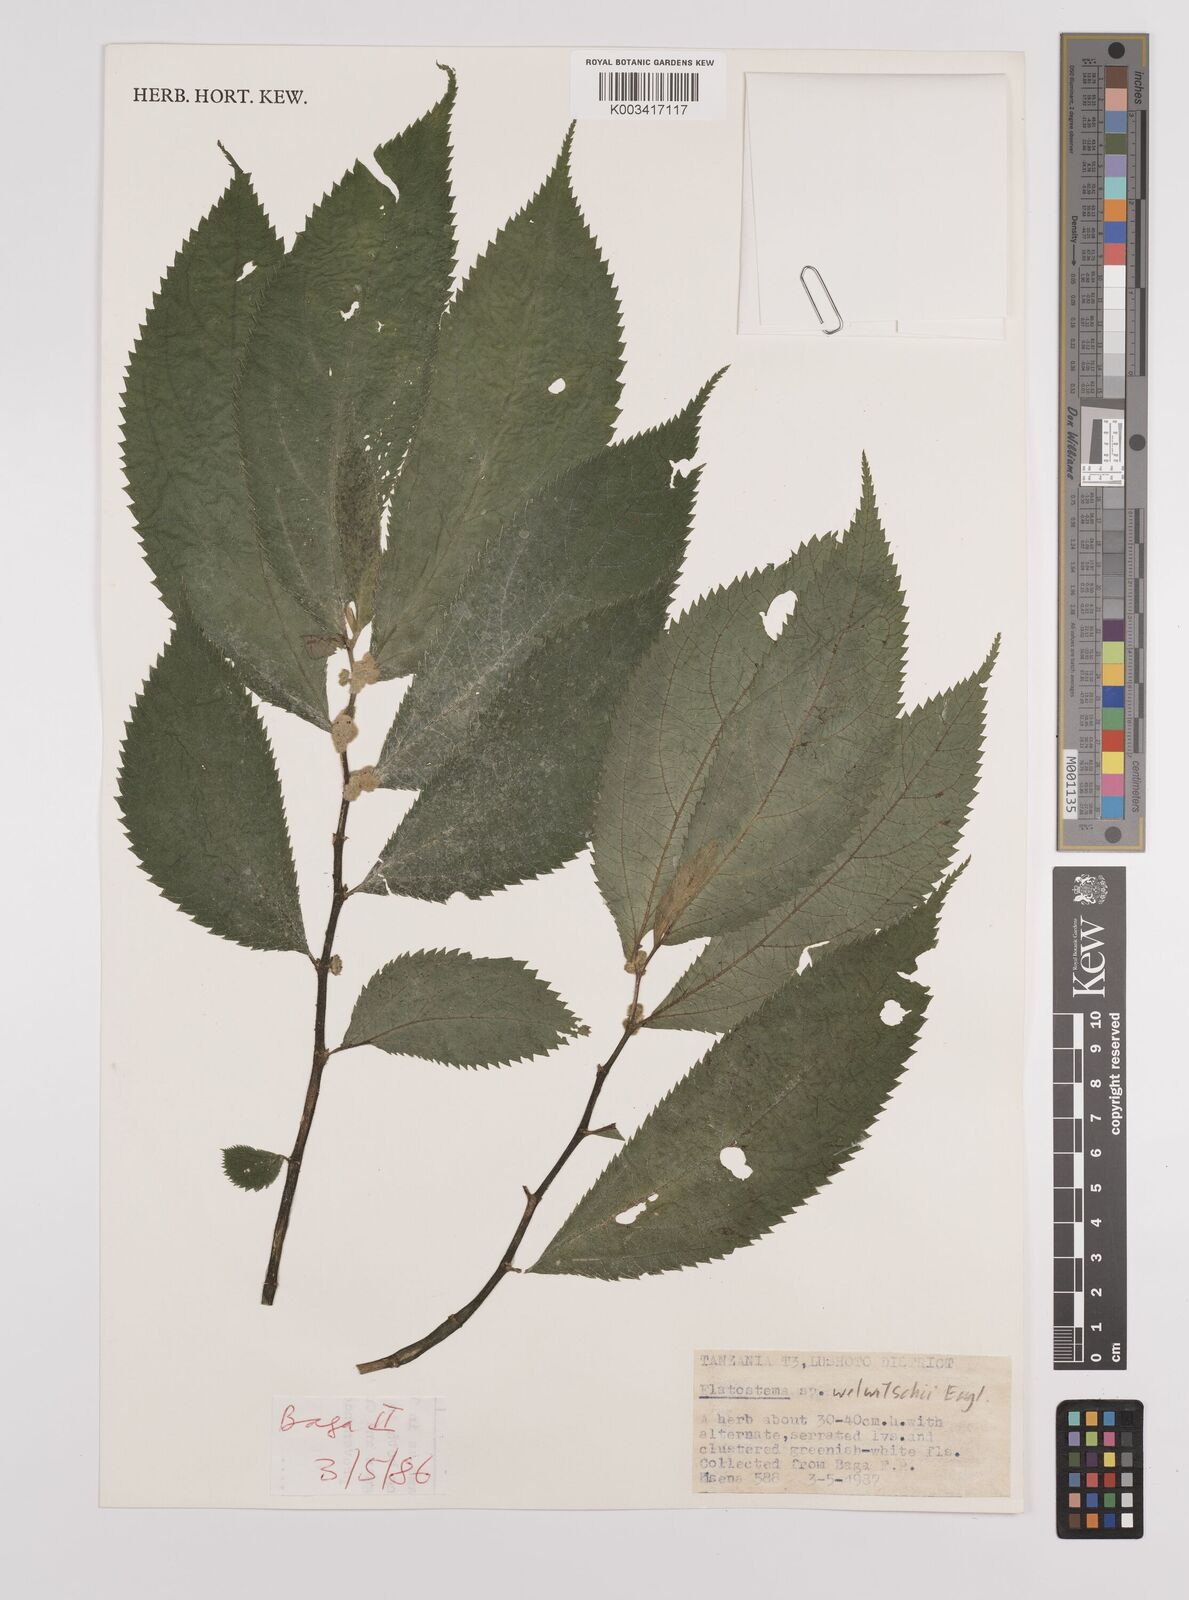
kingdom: Plantae
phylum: Tracheophyta
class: Magnoliopsida
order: Rosales
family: Urticaceae
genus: Elatostema
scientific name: Elatostema welwitschii
